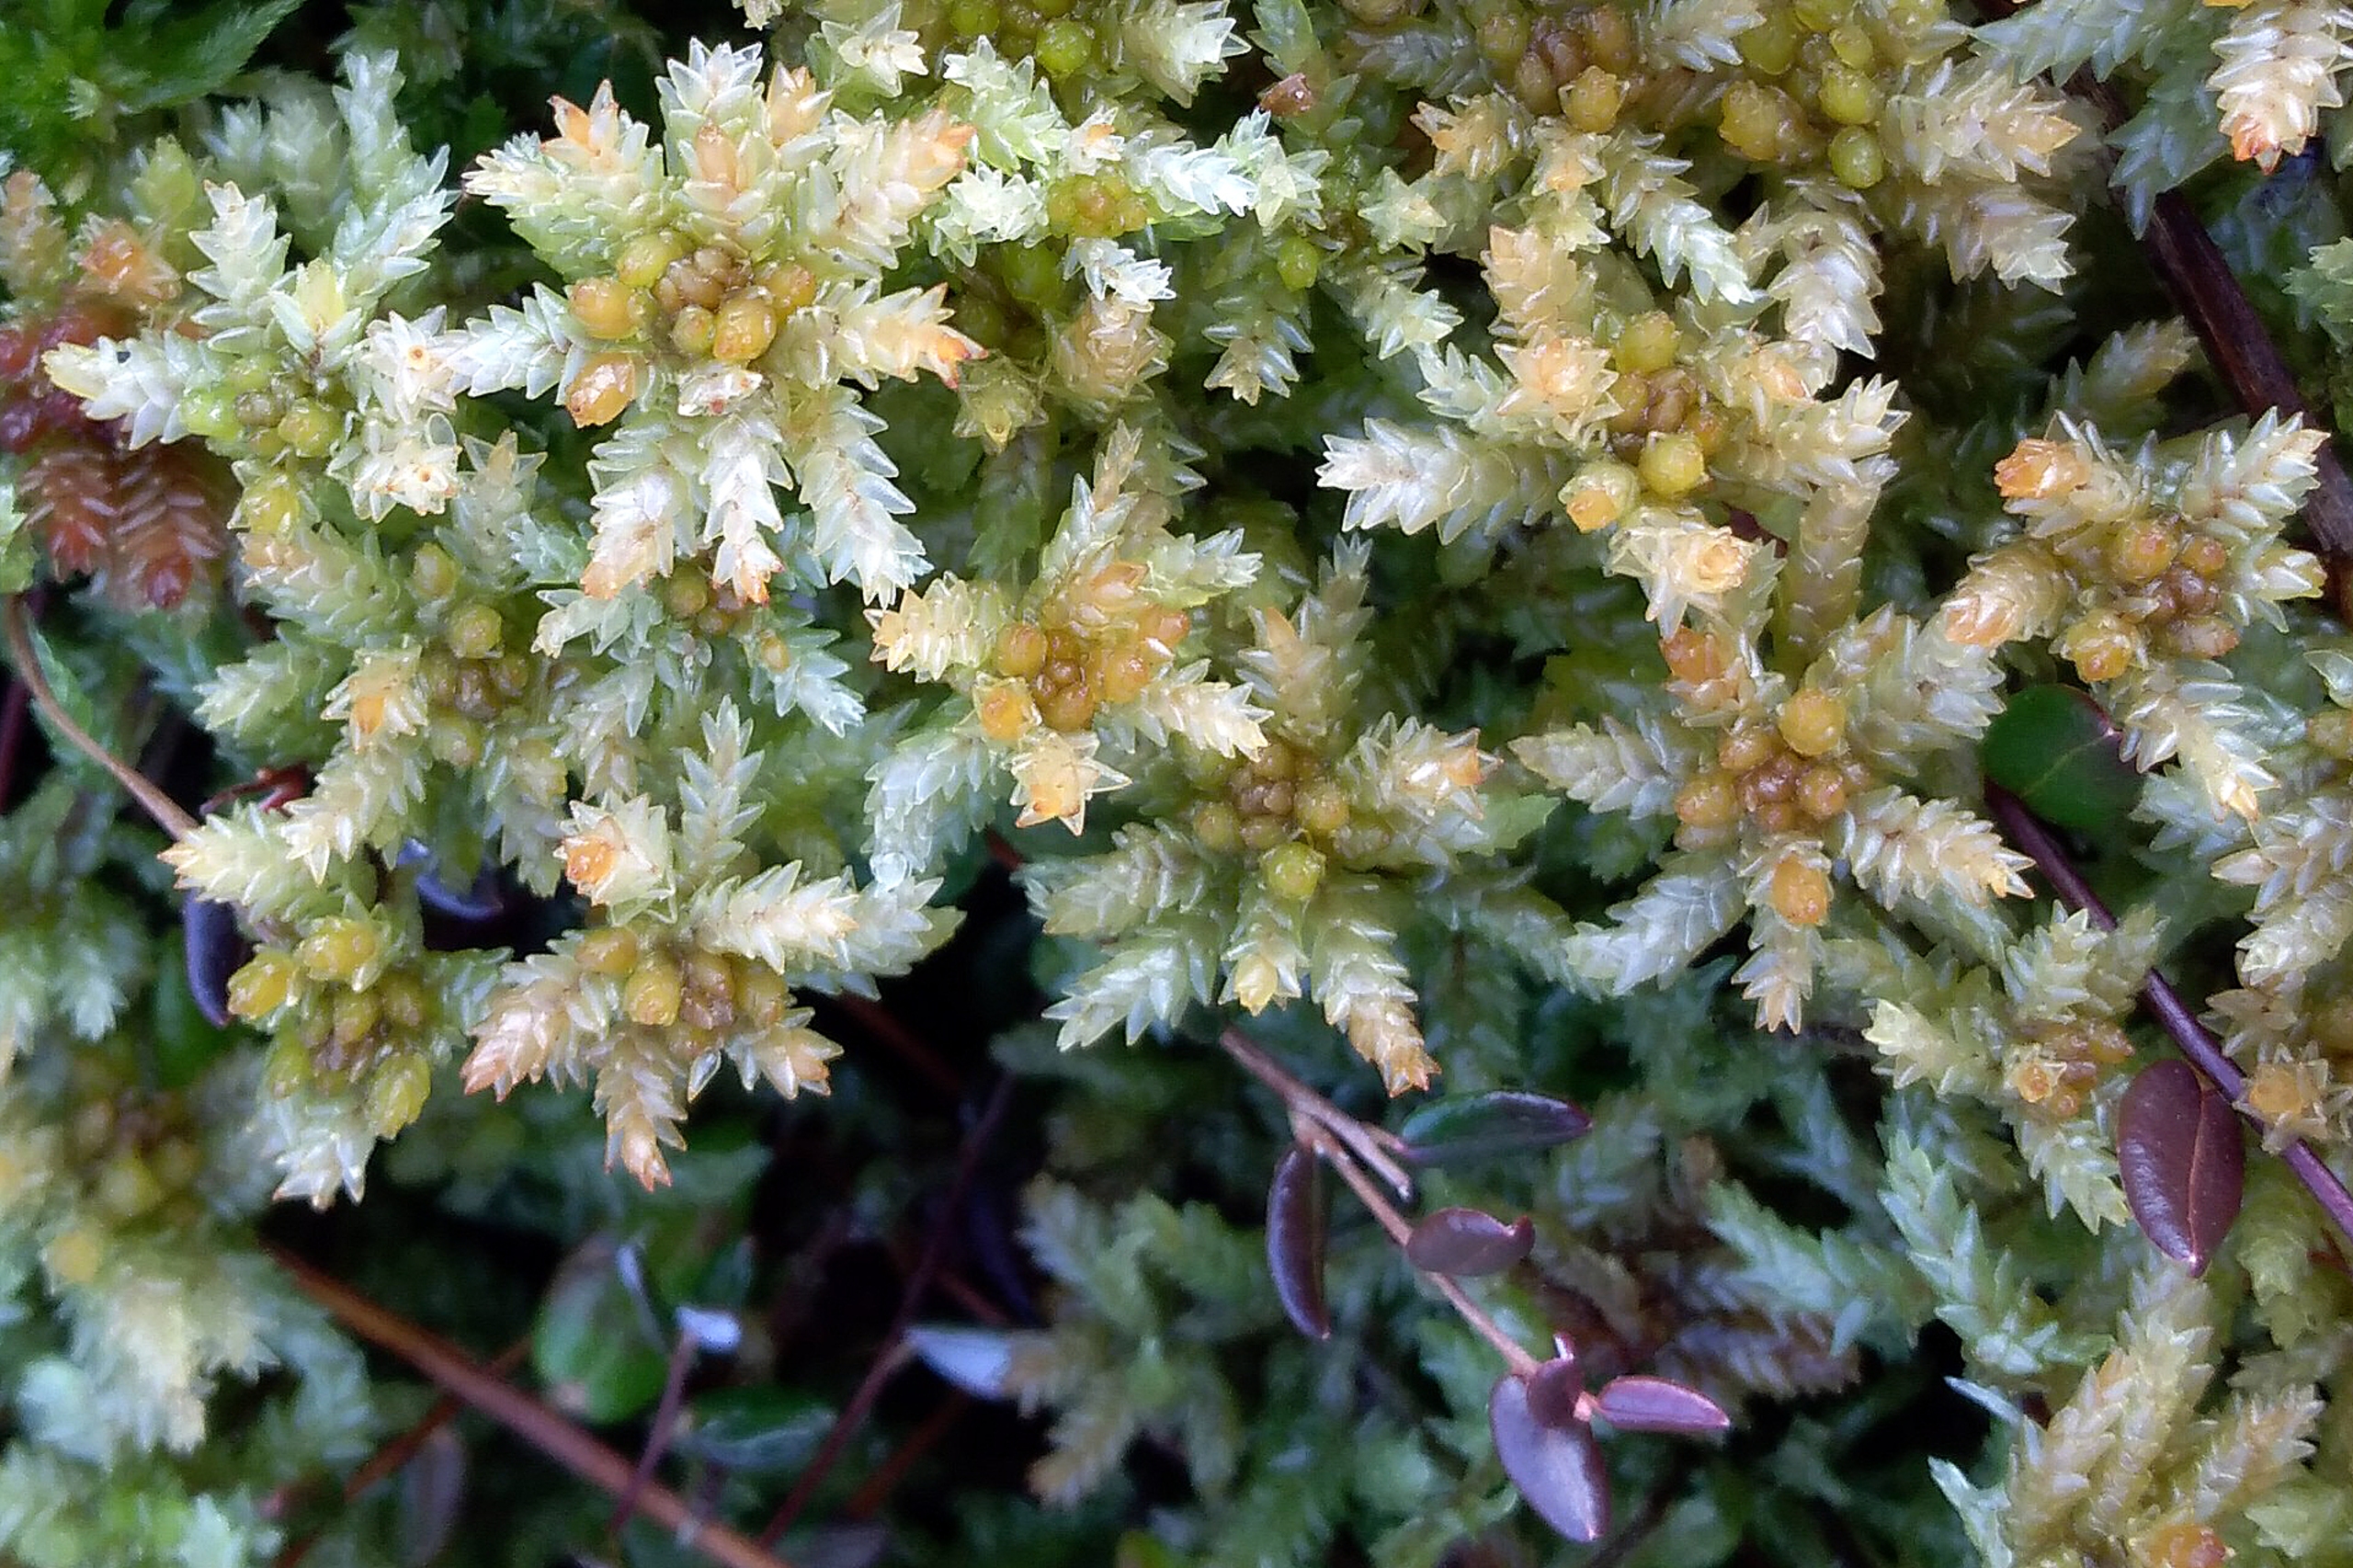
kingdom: Plantae
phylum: Bryophyta
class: Sphagnopsida
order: Sphagnales
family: Sphagnaceae
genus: Sphagnum
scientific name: Sphagnum papillosum
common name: Sod-tørvemos
